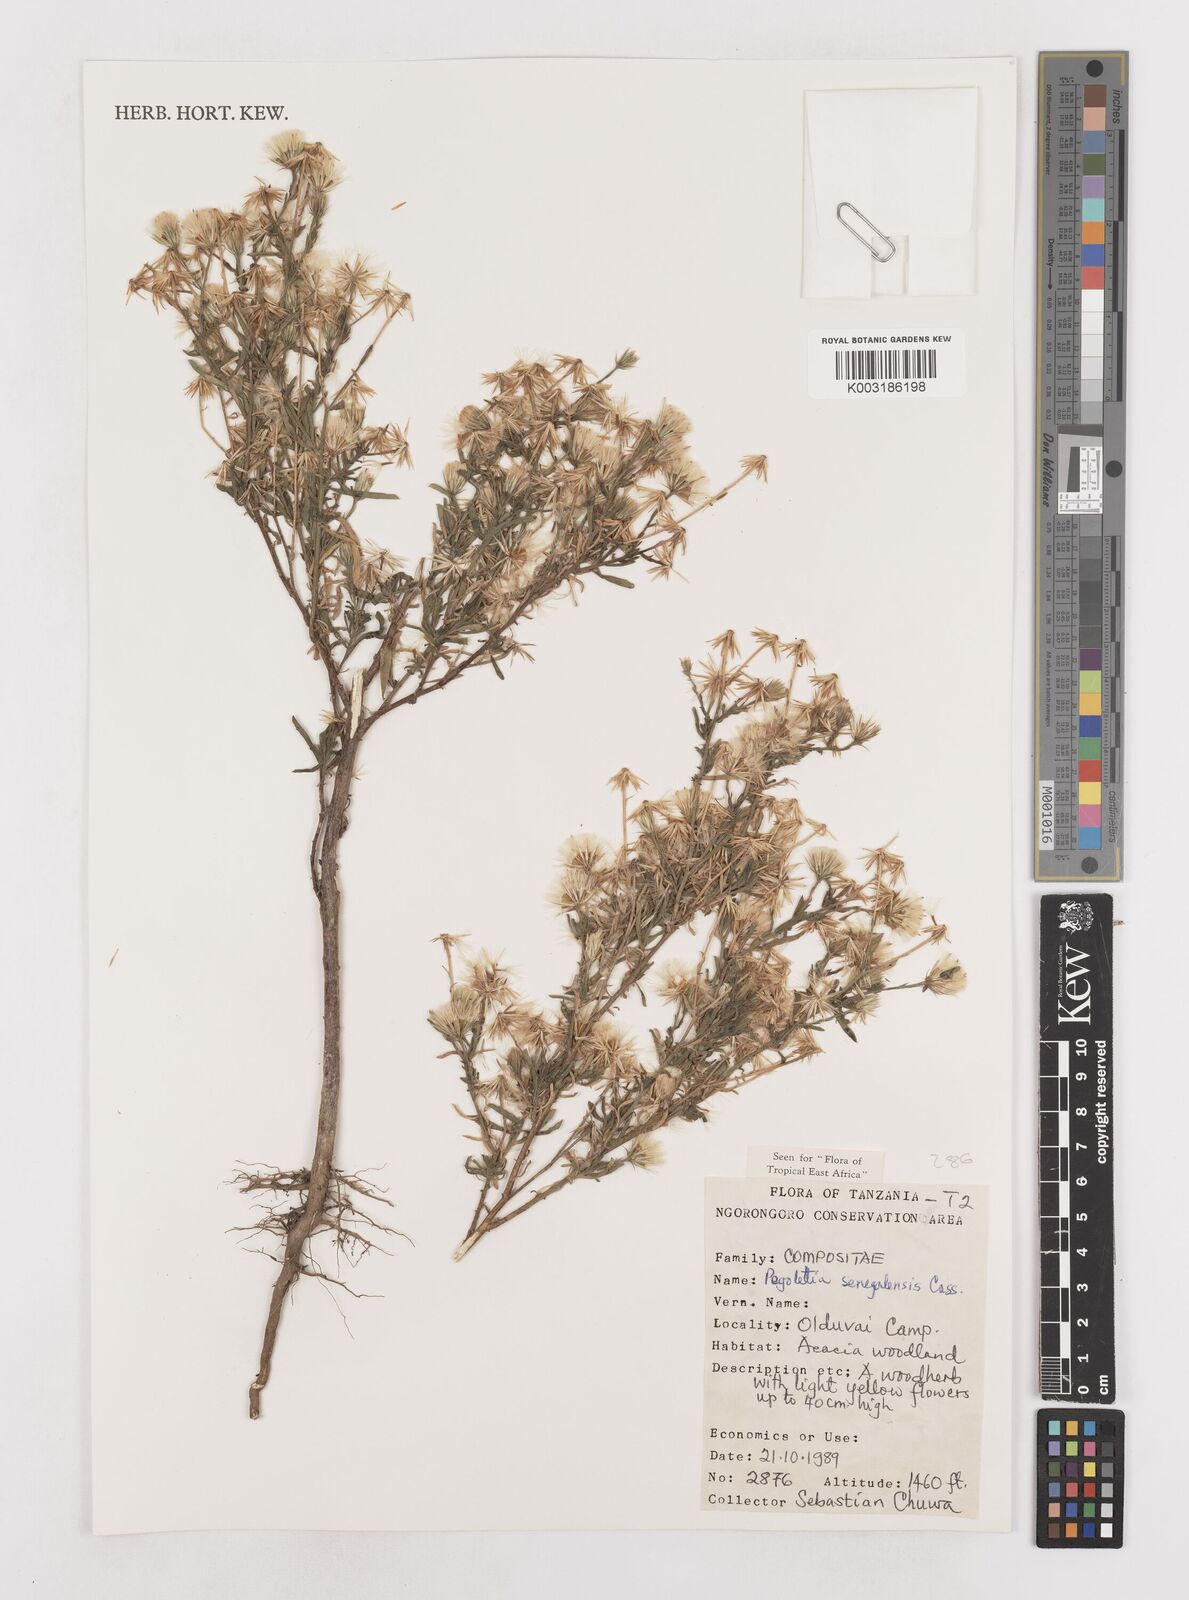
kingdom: Plantae
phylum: Tracheophyta
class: Magnoliopsida
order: Asterales
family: Asteraceae
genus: Pegolettia
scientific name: Pegolettia senegalensis
